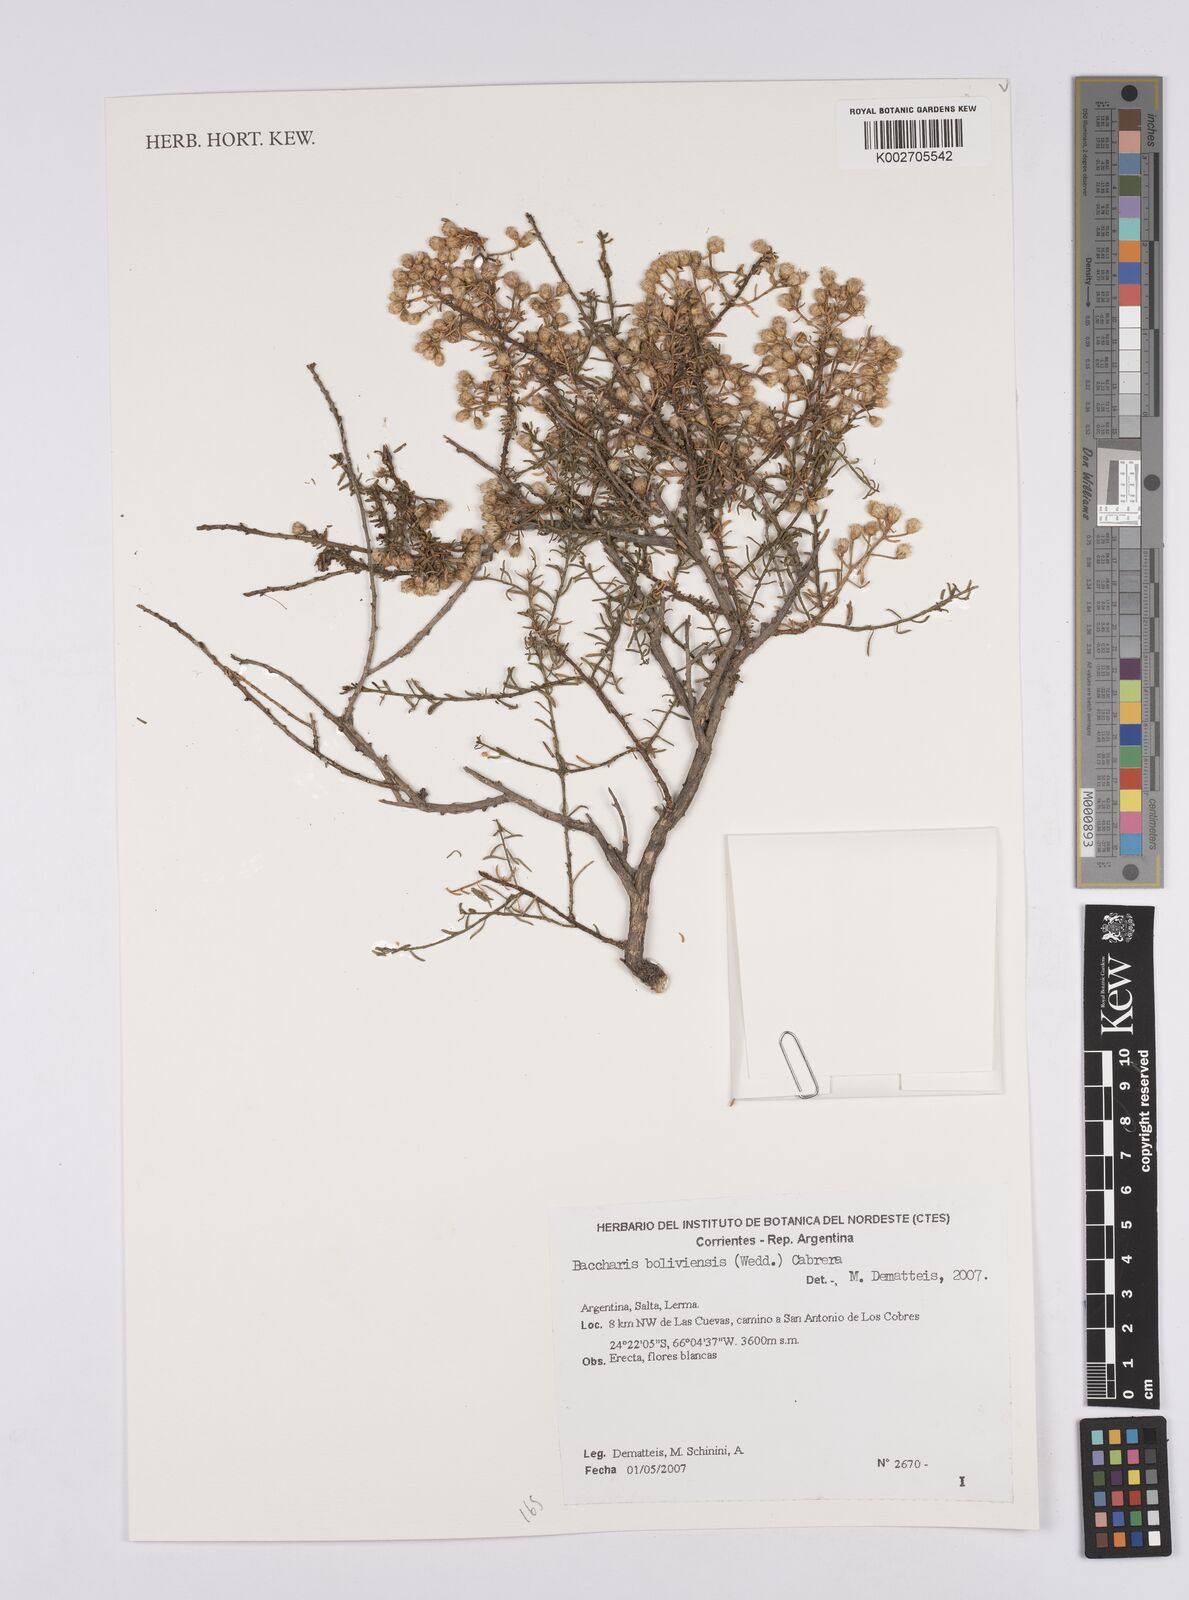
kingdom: Plantae
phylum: Tracheophyta
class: Magnoliopsida
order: Asterales
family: Asteraceae
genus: Baccharis
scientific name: Baccharis bolivensis
